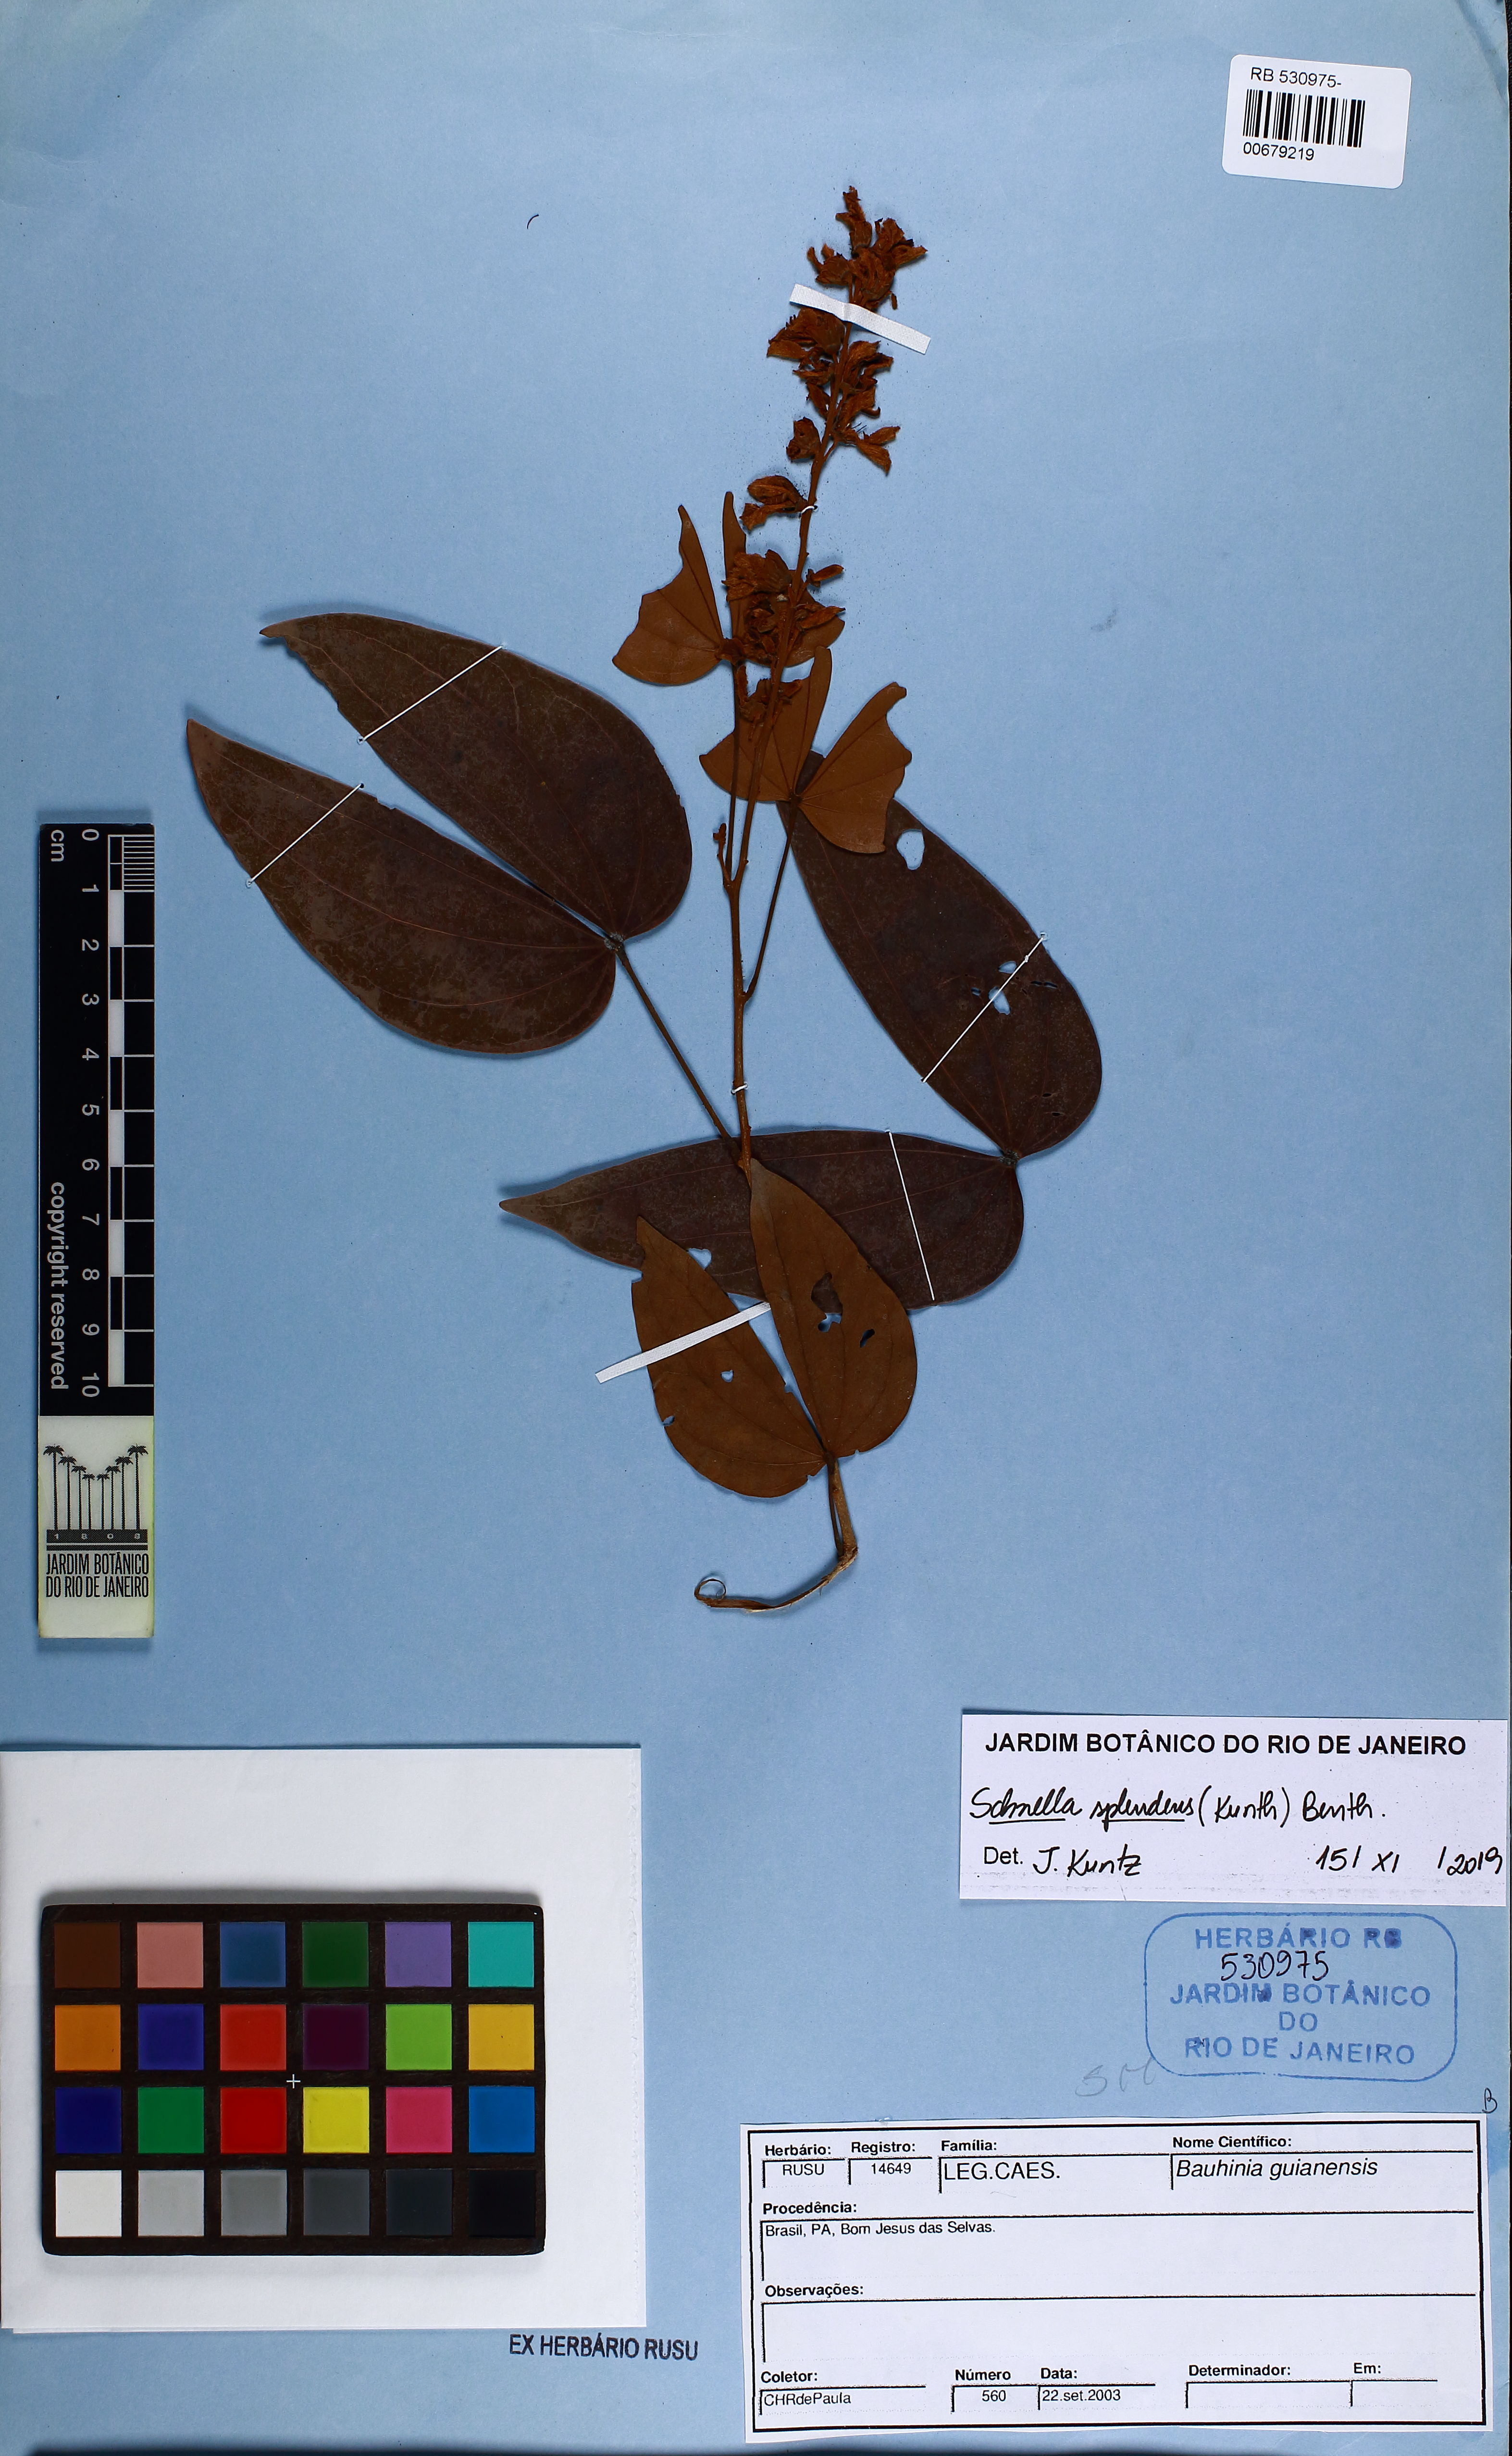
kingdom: Plantae
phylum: Tracheophyta
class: Magnoliopsida
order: Fabales
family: Fabaceae
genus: Schnella
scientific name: Schnella splendens
